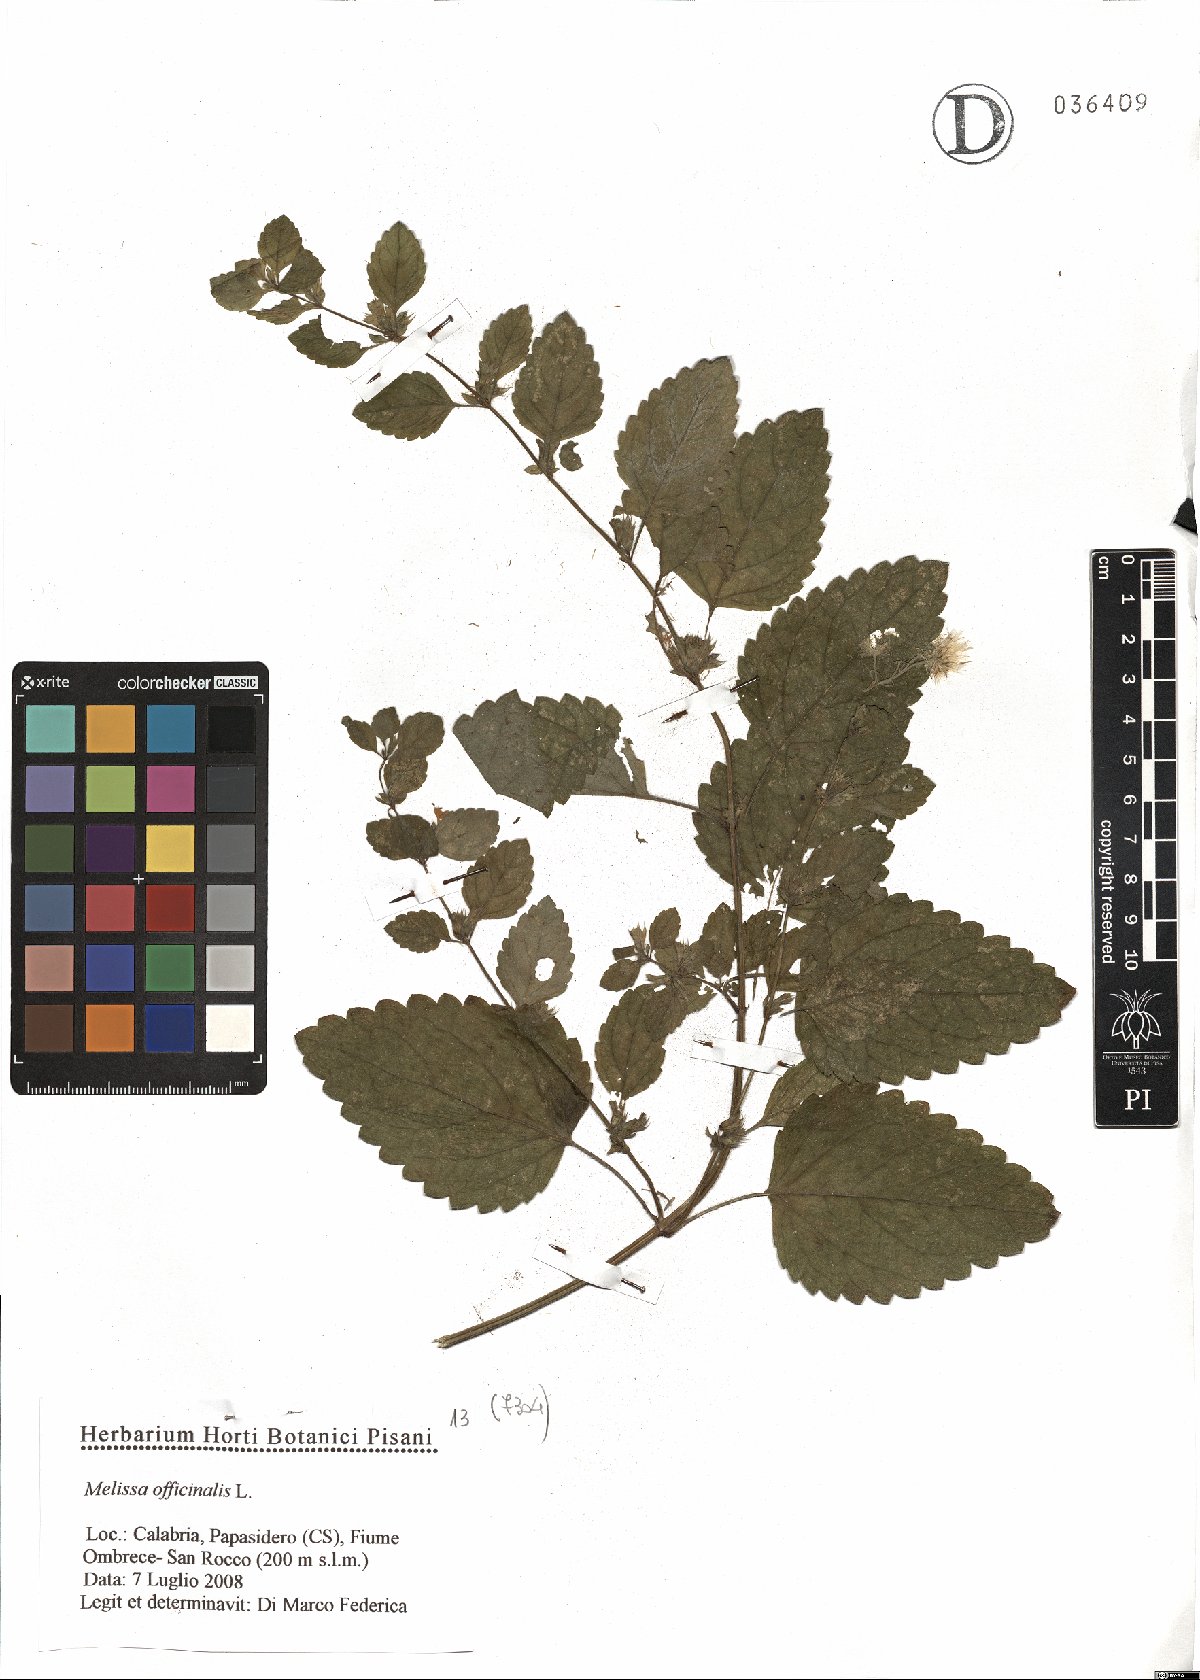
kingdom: Plantae
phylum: Tracheophyta
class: Magnoliopsida
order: Lamiales
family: Lamiaceae
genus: Melissa
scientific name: Melissa officinalis
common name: Balm
